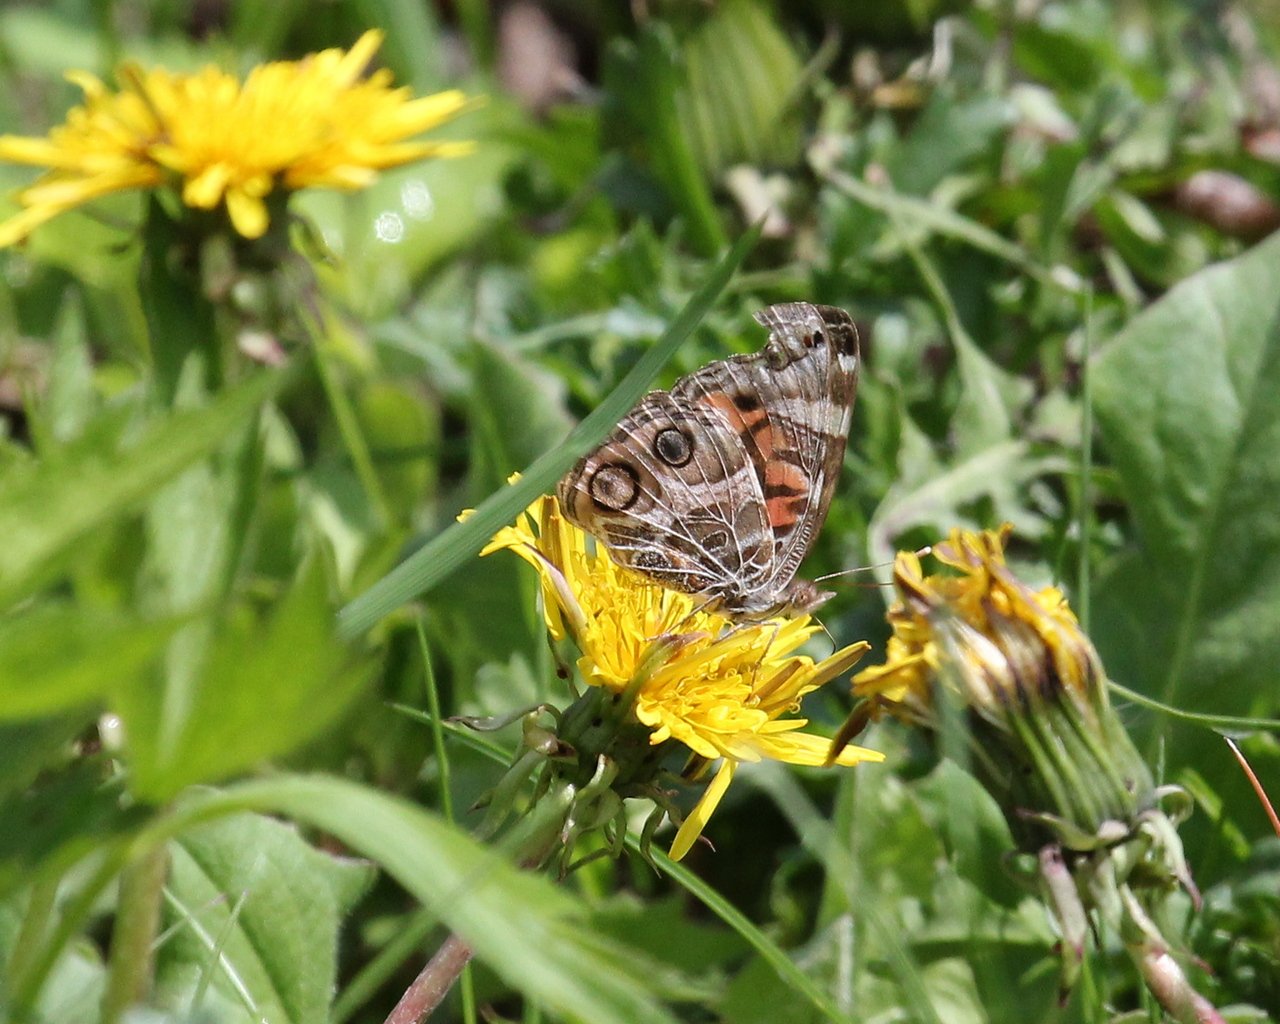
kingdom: Animalia
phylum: Arthropoda
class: Insecta
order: Lepidoptera
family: Nymphalidae
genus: Vanessa
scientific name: Vanessa virginiensis
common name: American Lady
